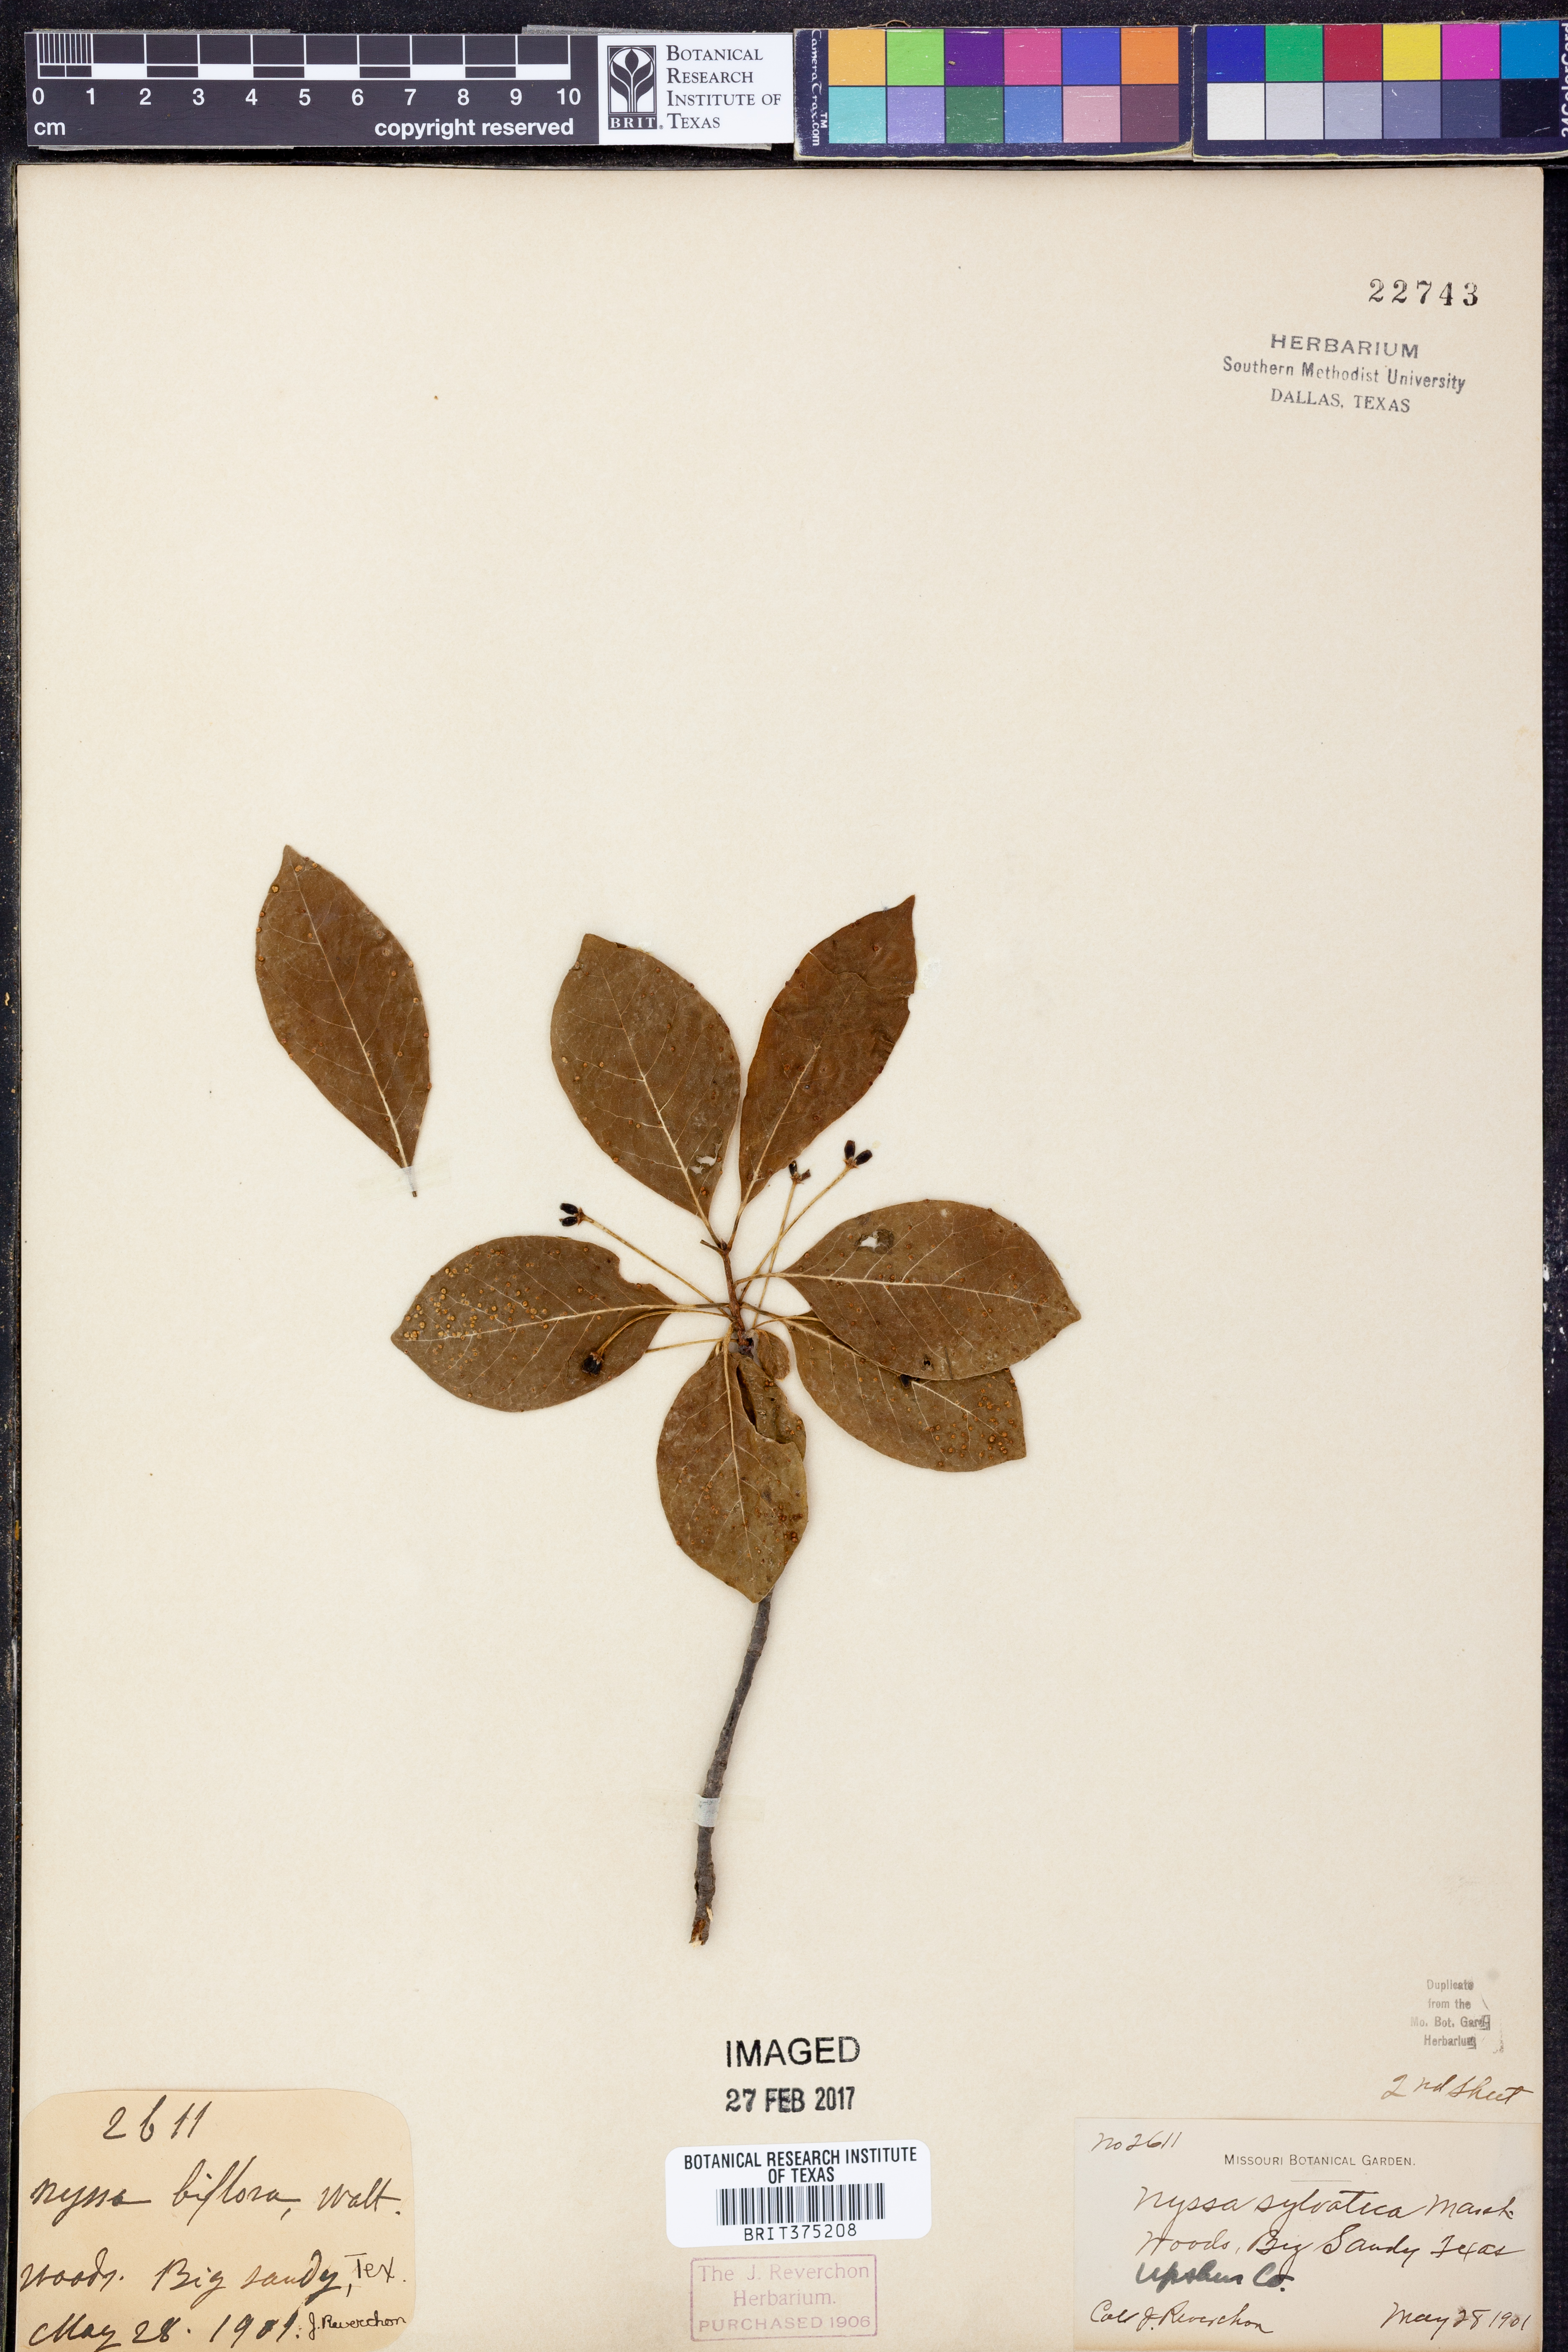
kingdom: Plantae
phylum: Tracheophyta
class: Magnoliopsida
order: Cornales
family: Nyssaceae
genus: Nyssa
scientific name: Nyssa sylvatica
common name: Black tupelo
